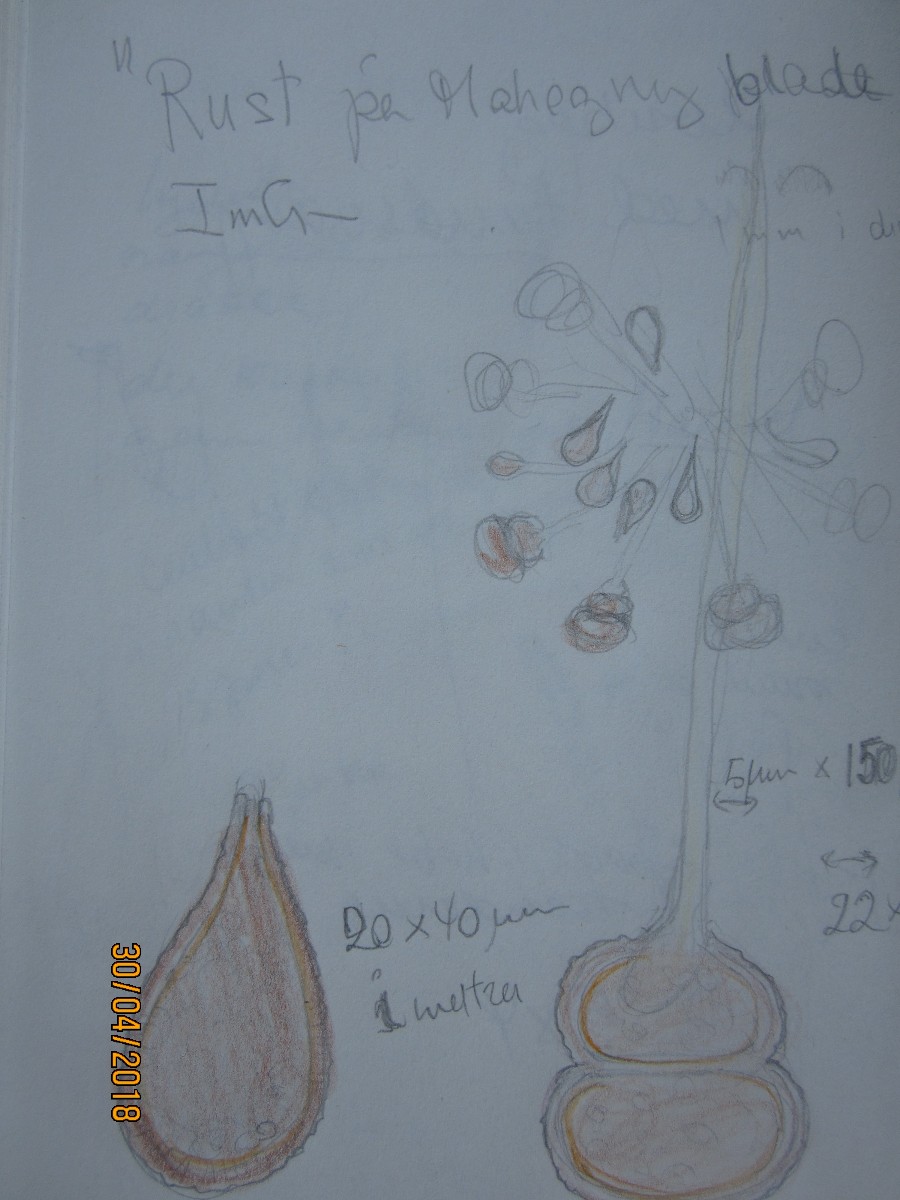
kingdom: Fungi
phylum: Basidiomycota
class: Pucciniomycetes
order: Pucciniales
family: Pucciniaceae
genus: Cumminsiella
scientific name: Cumminsiella mirabilissima
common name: mahonierust
